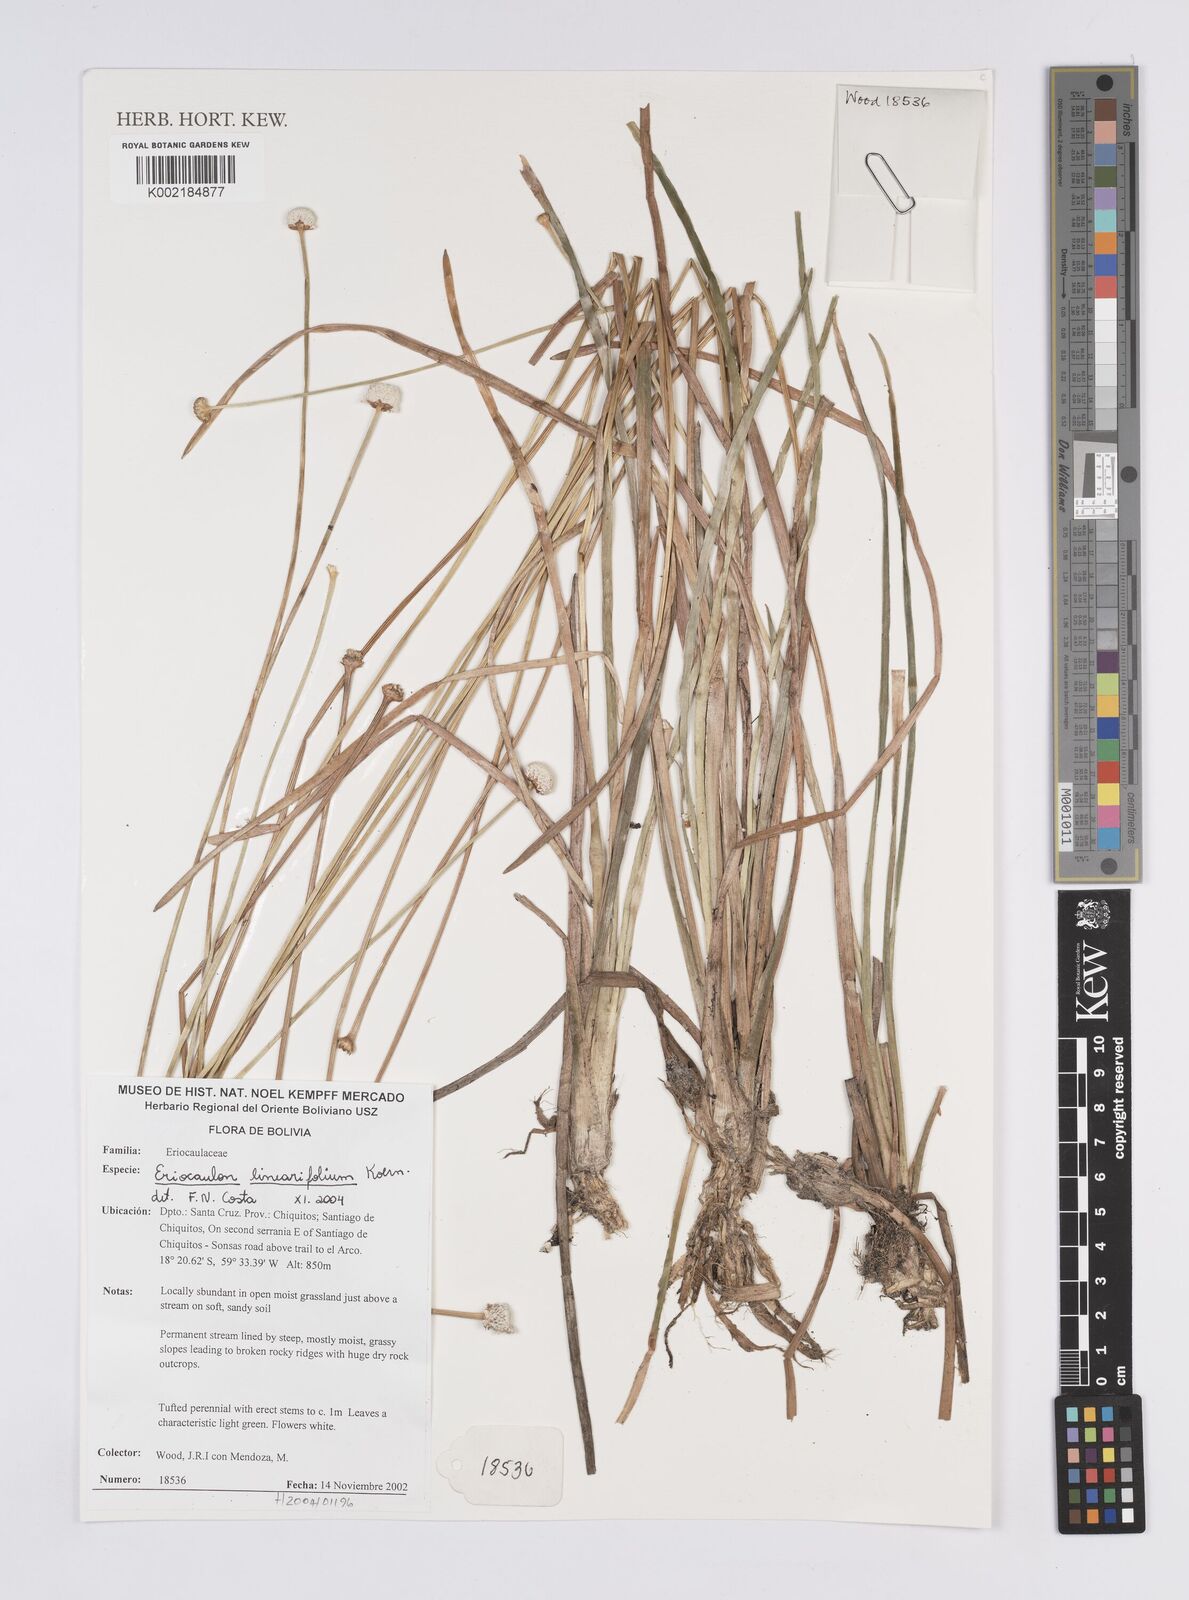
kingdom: Plantae
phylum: Tracheophyta
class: Liliopsida
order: Poales
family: Eriocaulaceae
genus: Eriocaulon
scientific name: Eriocaulon
